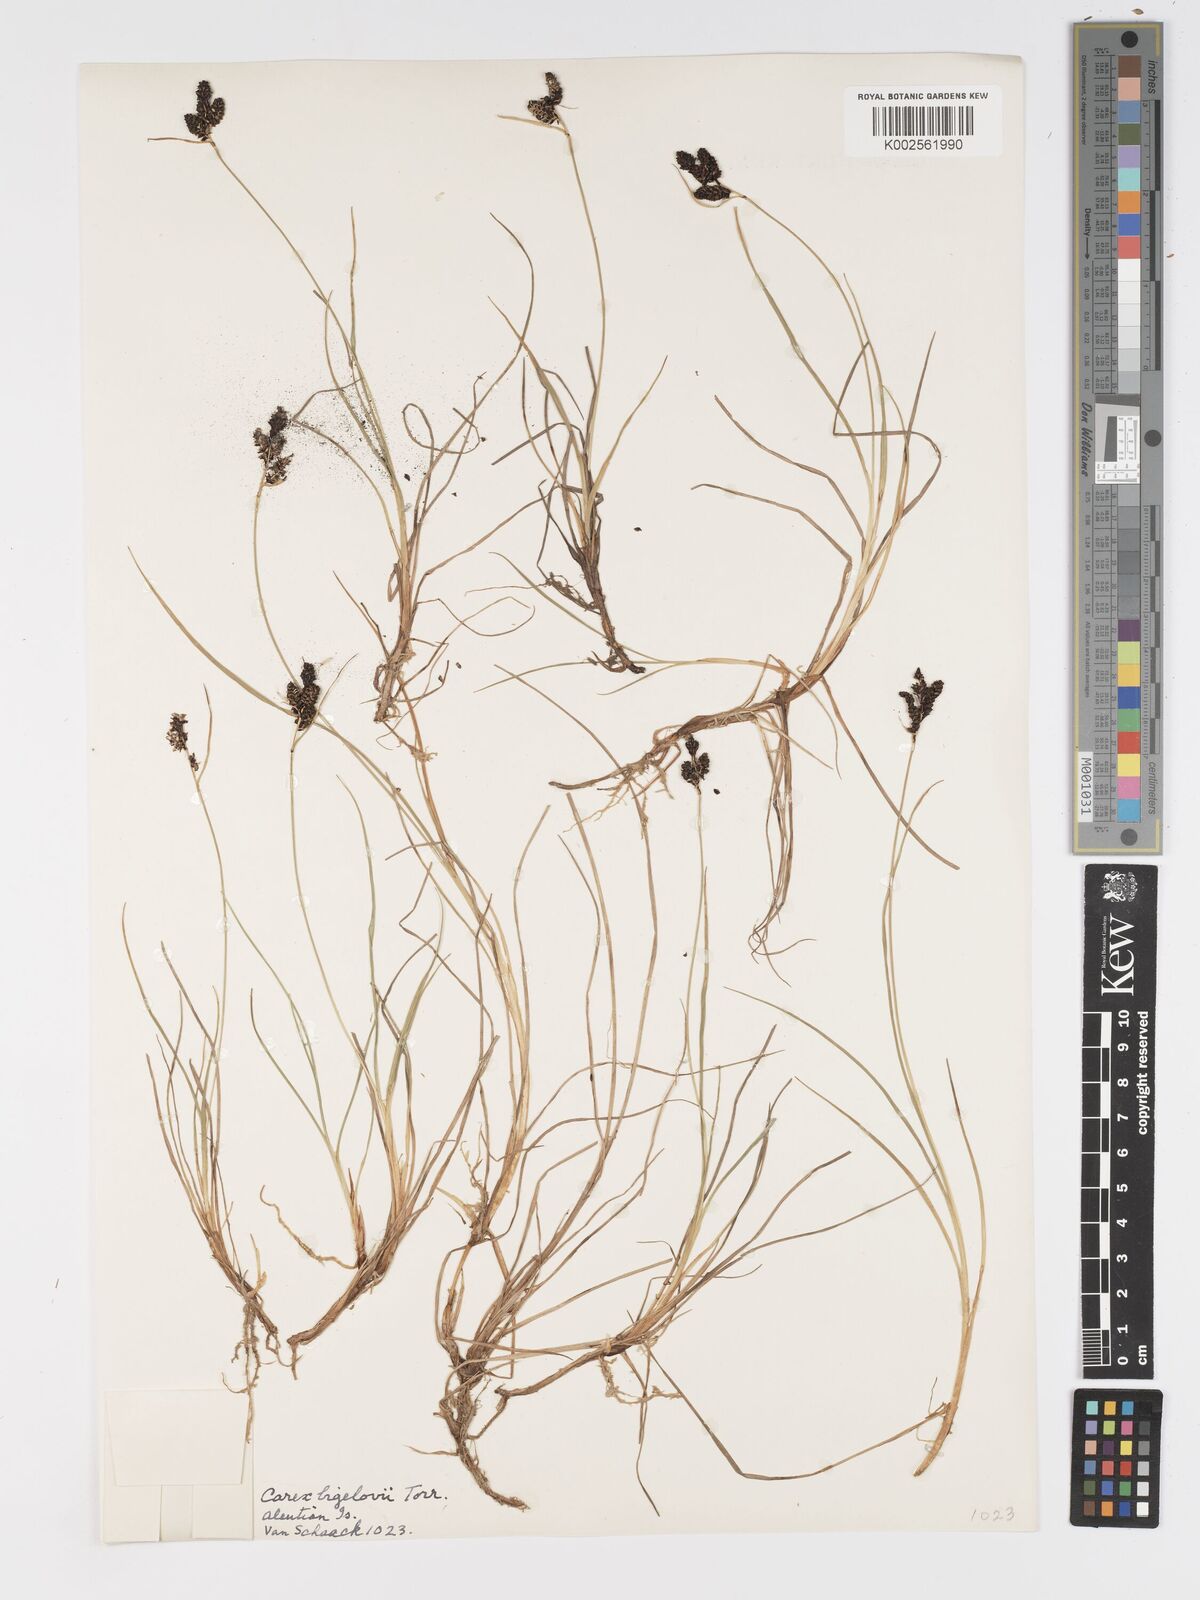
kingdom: Plantae
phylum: Tracheophyta
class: Liliopsida
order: Poales
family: Cyperaceae
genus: Carex
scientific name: Carex bigelowii
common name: Stiff sedge
